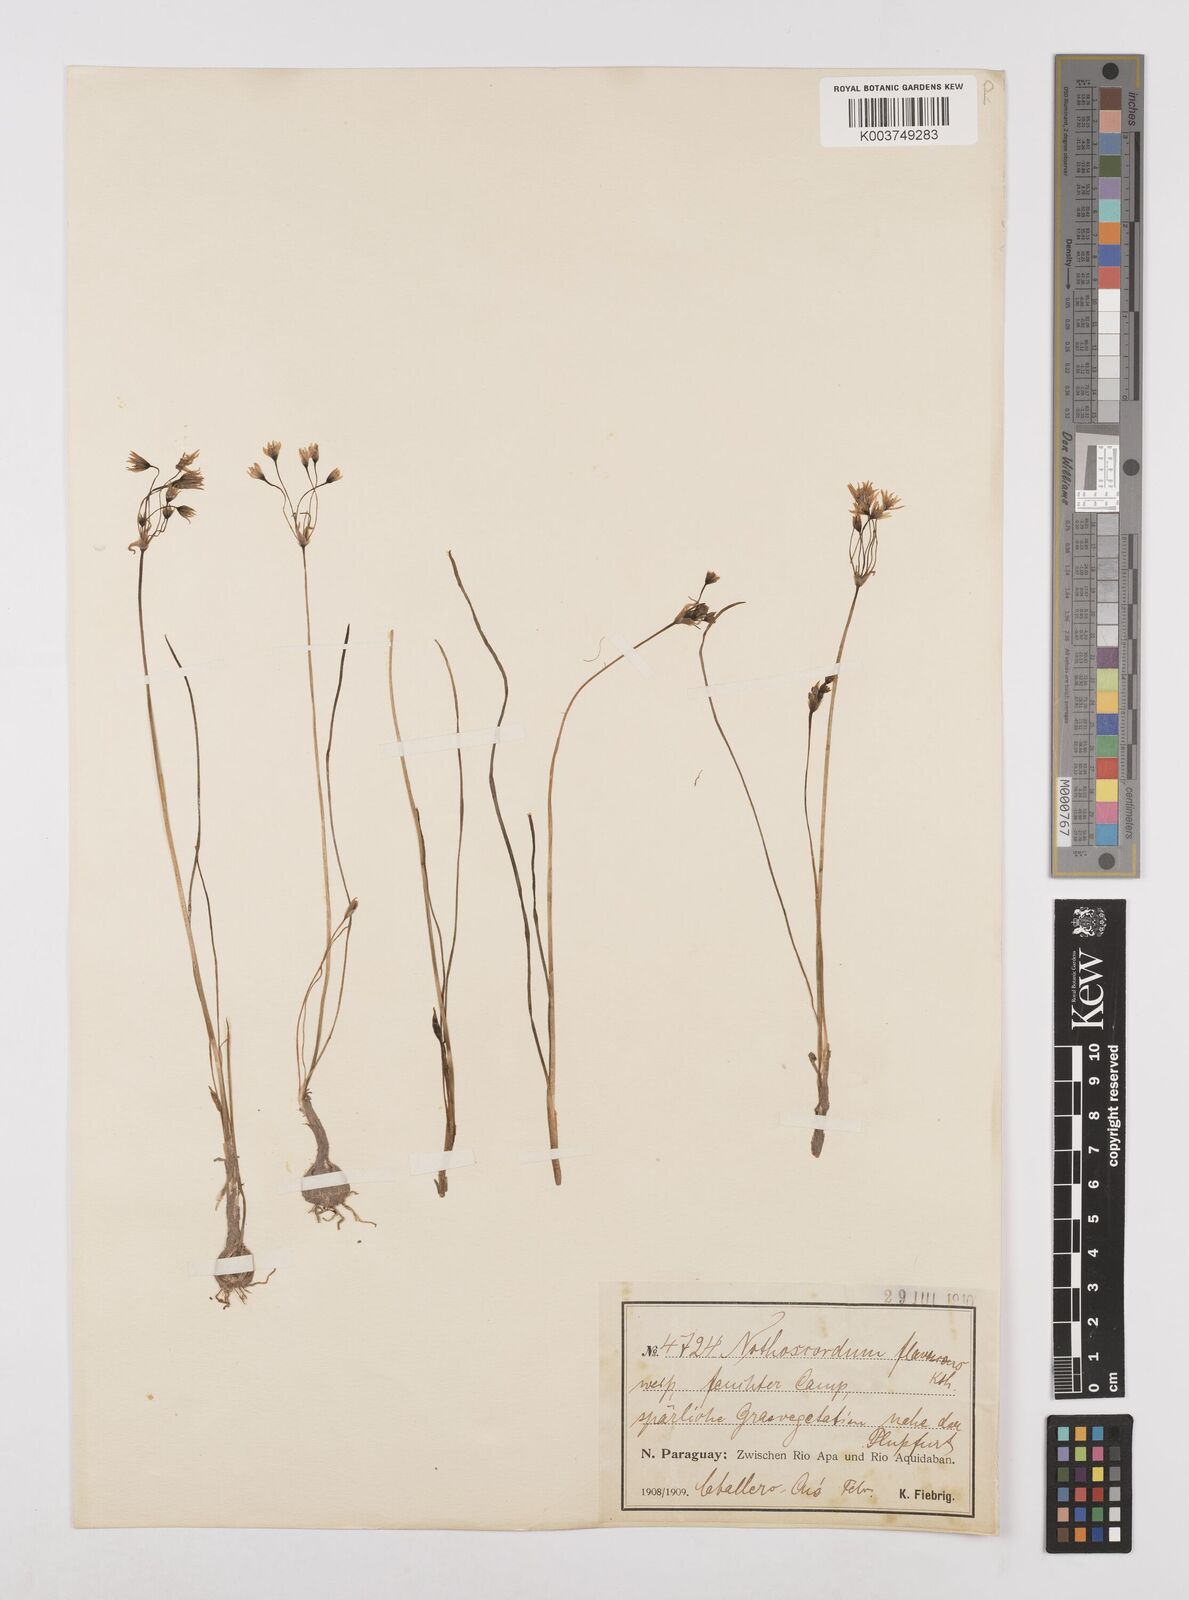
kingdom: Plantae
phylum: Tracheophyta
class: Liliopsida
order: Asparagales
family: Amaryllidaceae
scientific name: Amaryllidaceae
